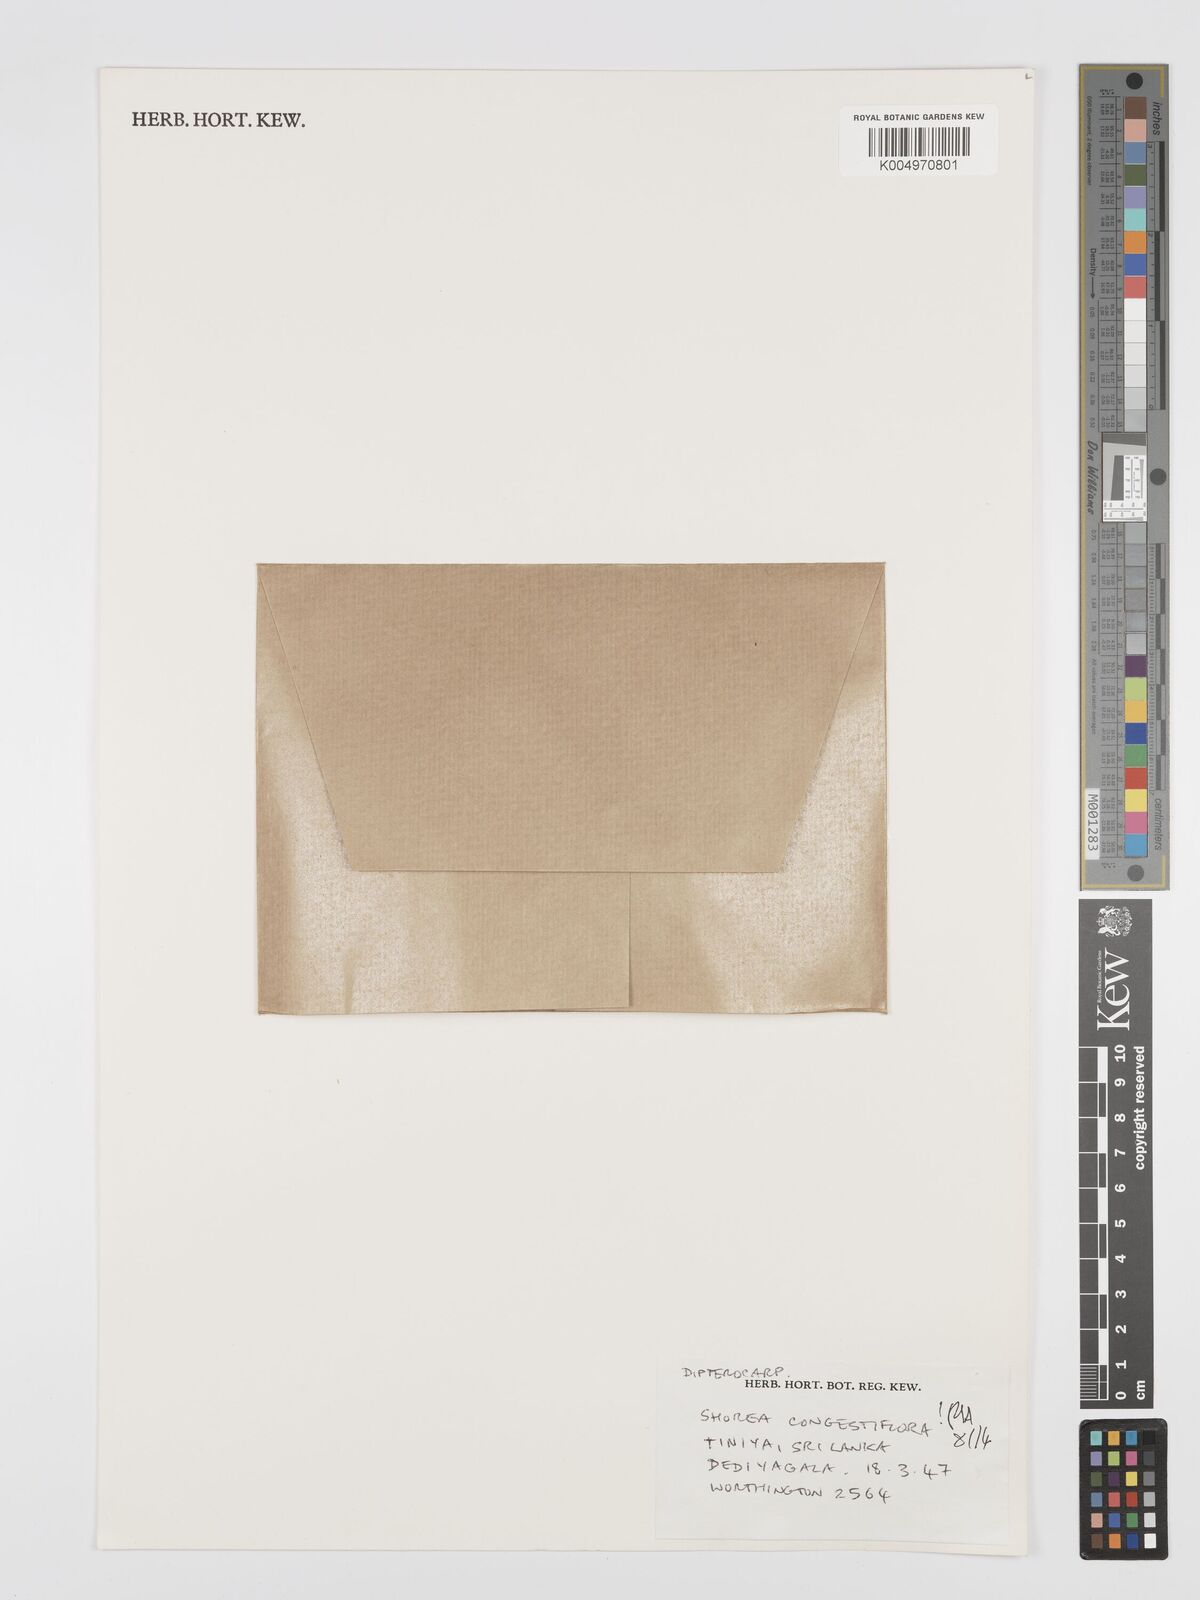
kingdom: Plantae
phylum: Tracheophyta
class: Magnoliopsida
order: Malvales
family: Dipterocarpaceae
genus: Doona
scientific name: Doona congestiflora
